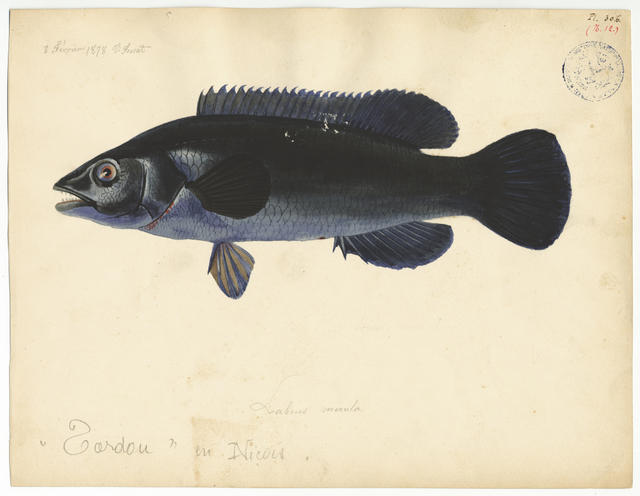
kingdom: Animalia
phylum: Chordata
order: Perciformes
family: Labridae
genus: Labrus
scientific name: Labrus merula
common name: Brown wrasse
